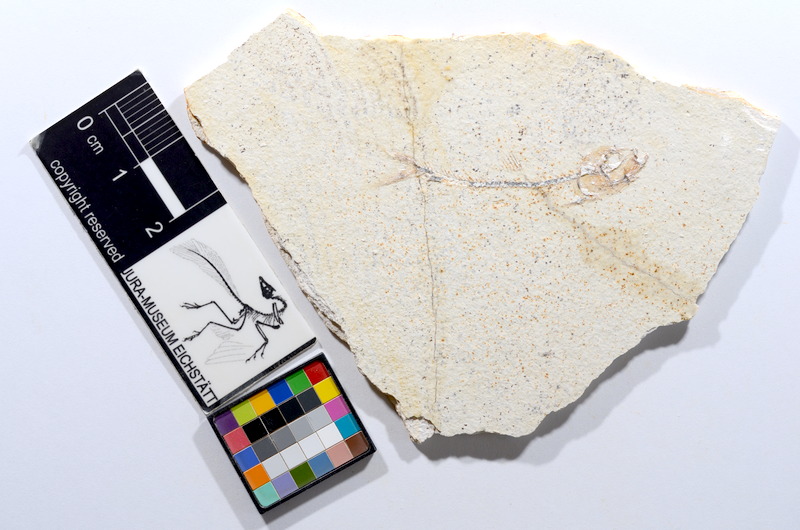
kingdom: Animalia
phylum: Chordata
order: Salmoniformes
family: Orthogonikleithridae
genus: Orthogonikleithrus
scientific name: Orthogonikleithrus hoelli
